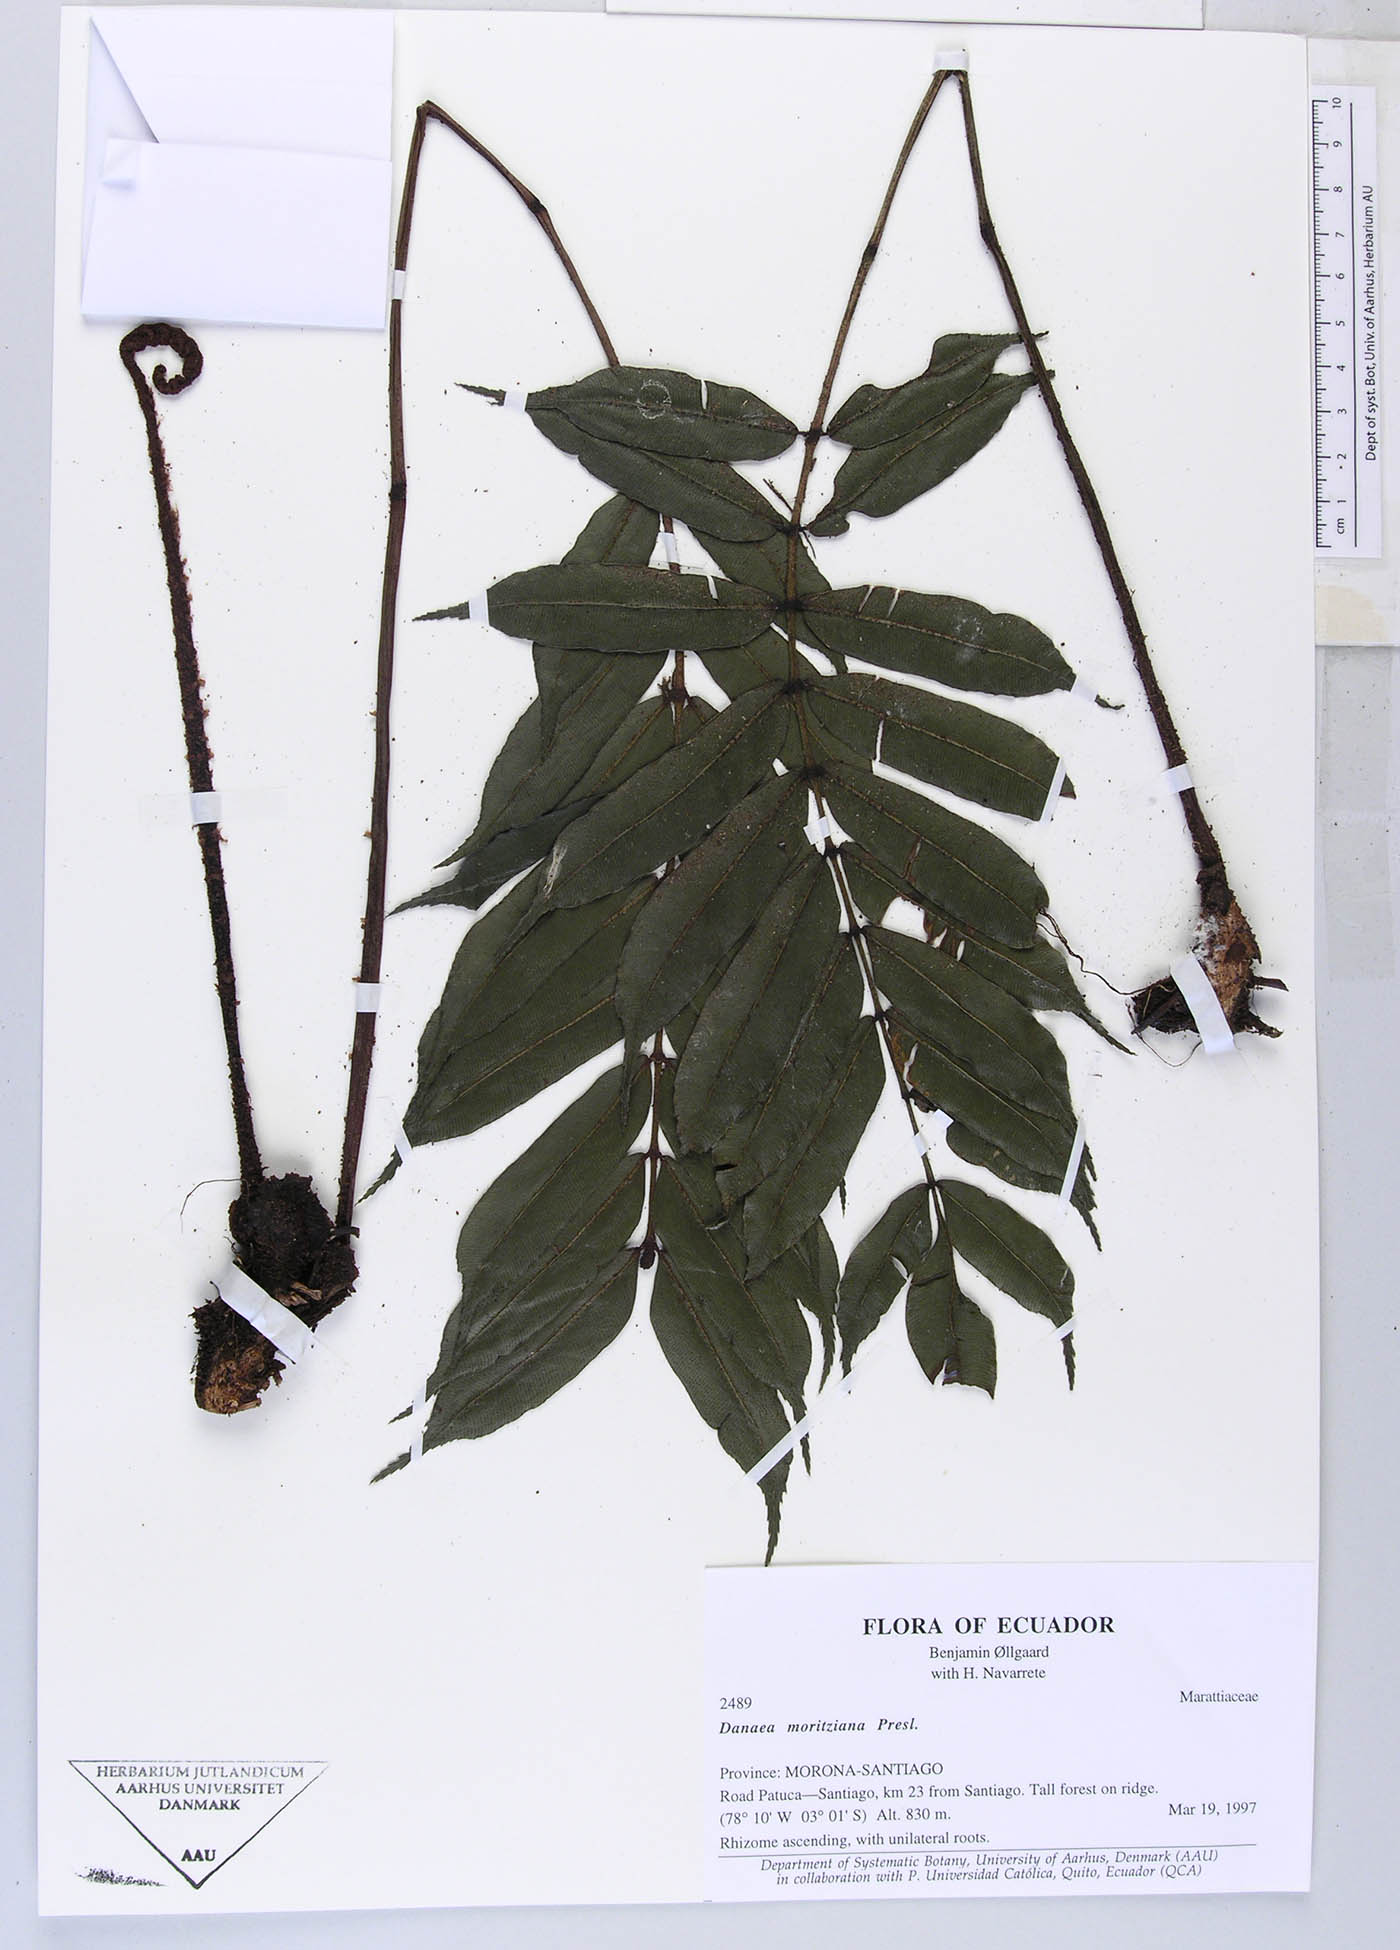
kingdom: Plantae
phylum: Tracheophyta
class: Polypodiopsida
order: Marattiales
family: Marattiaceae
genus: Danaea
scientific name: Danaea
